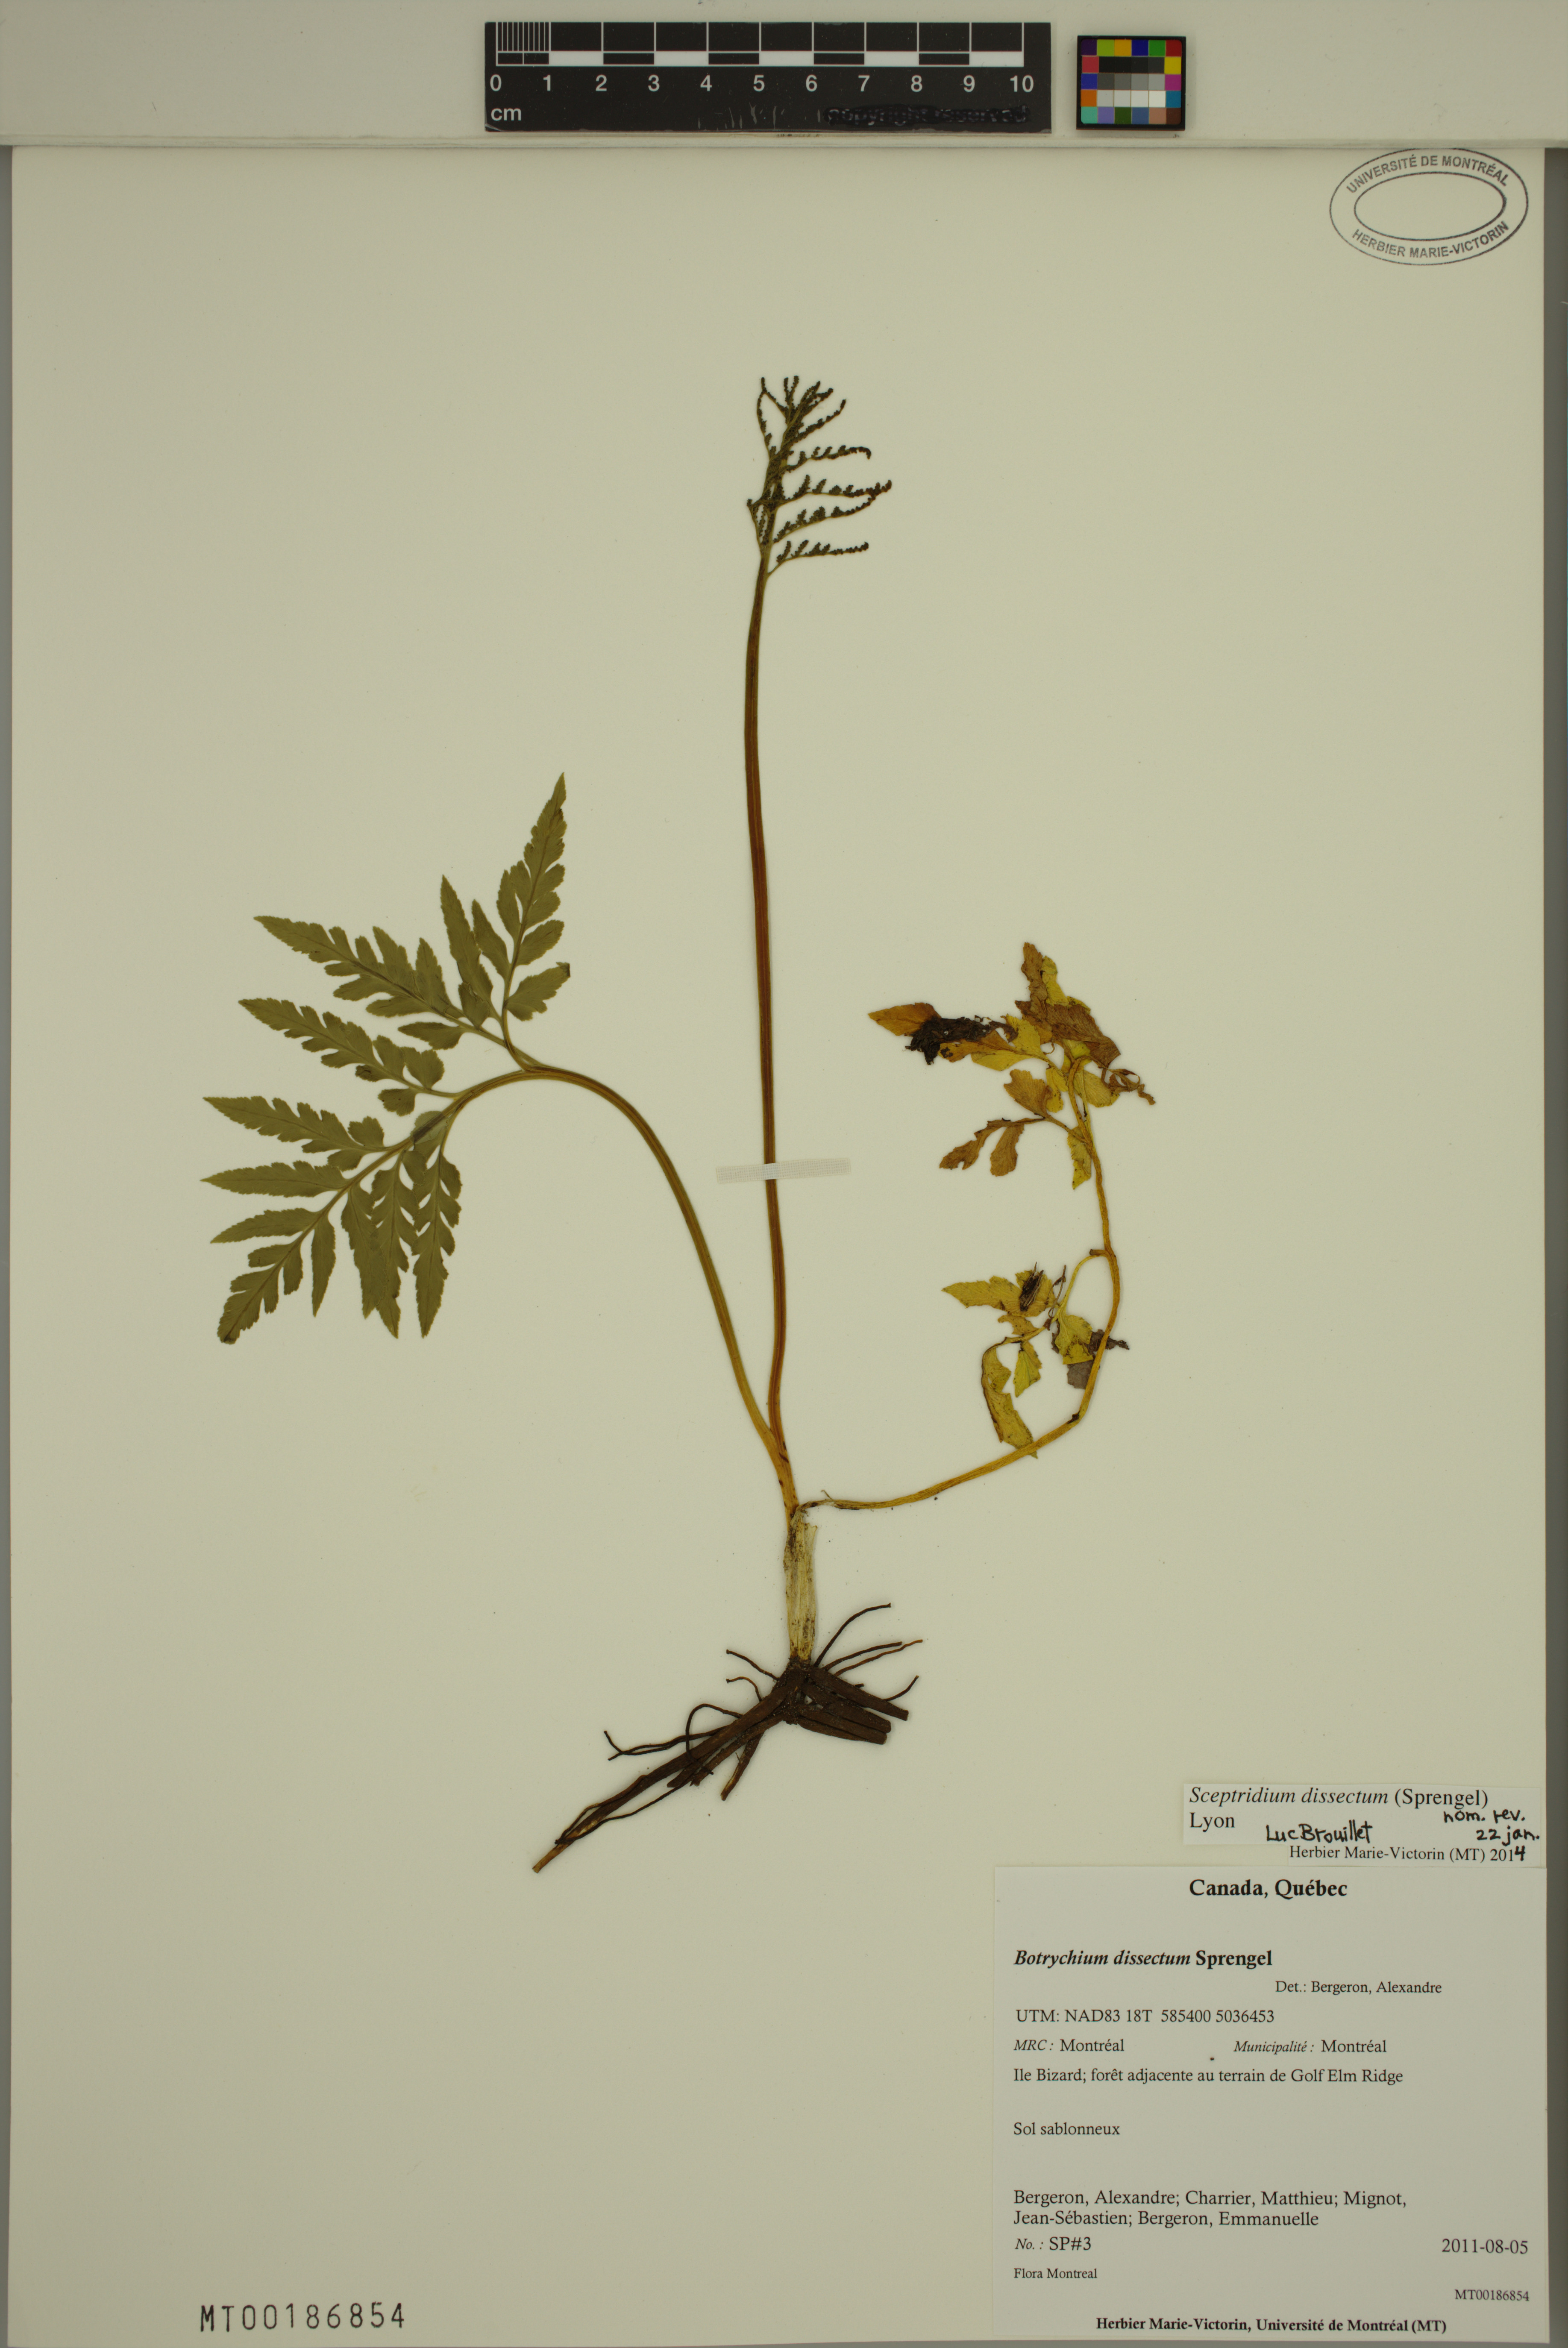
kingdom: Plantae
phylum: Tracheophyta
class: Polypodiopsida
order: Ophioglossales
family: Ophioglossaceae
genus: Sceptridium
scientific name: Sceptridium dissectum
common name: Cut-leaved grapefern
